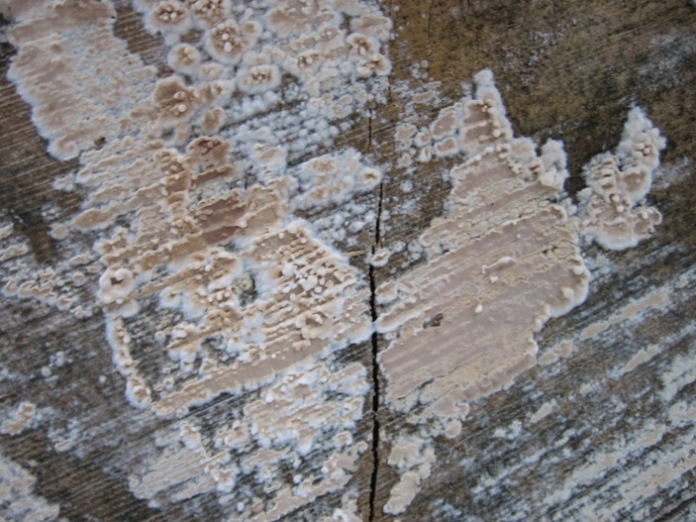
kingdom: Fungi
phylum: Basidiomycota
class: Agaricomycetes
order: Agaricales
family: Physalacriaceae
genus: Cylindrobasidium
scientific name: Cylindrobasidium evolvens
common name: sprækkehinde
